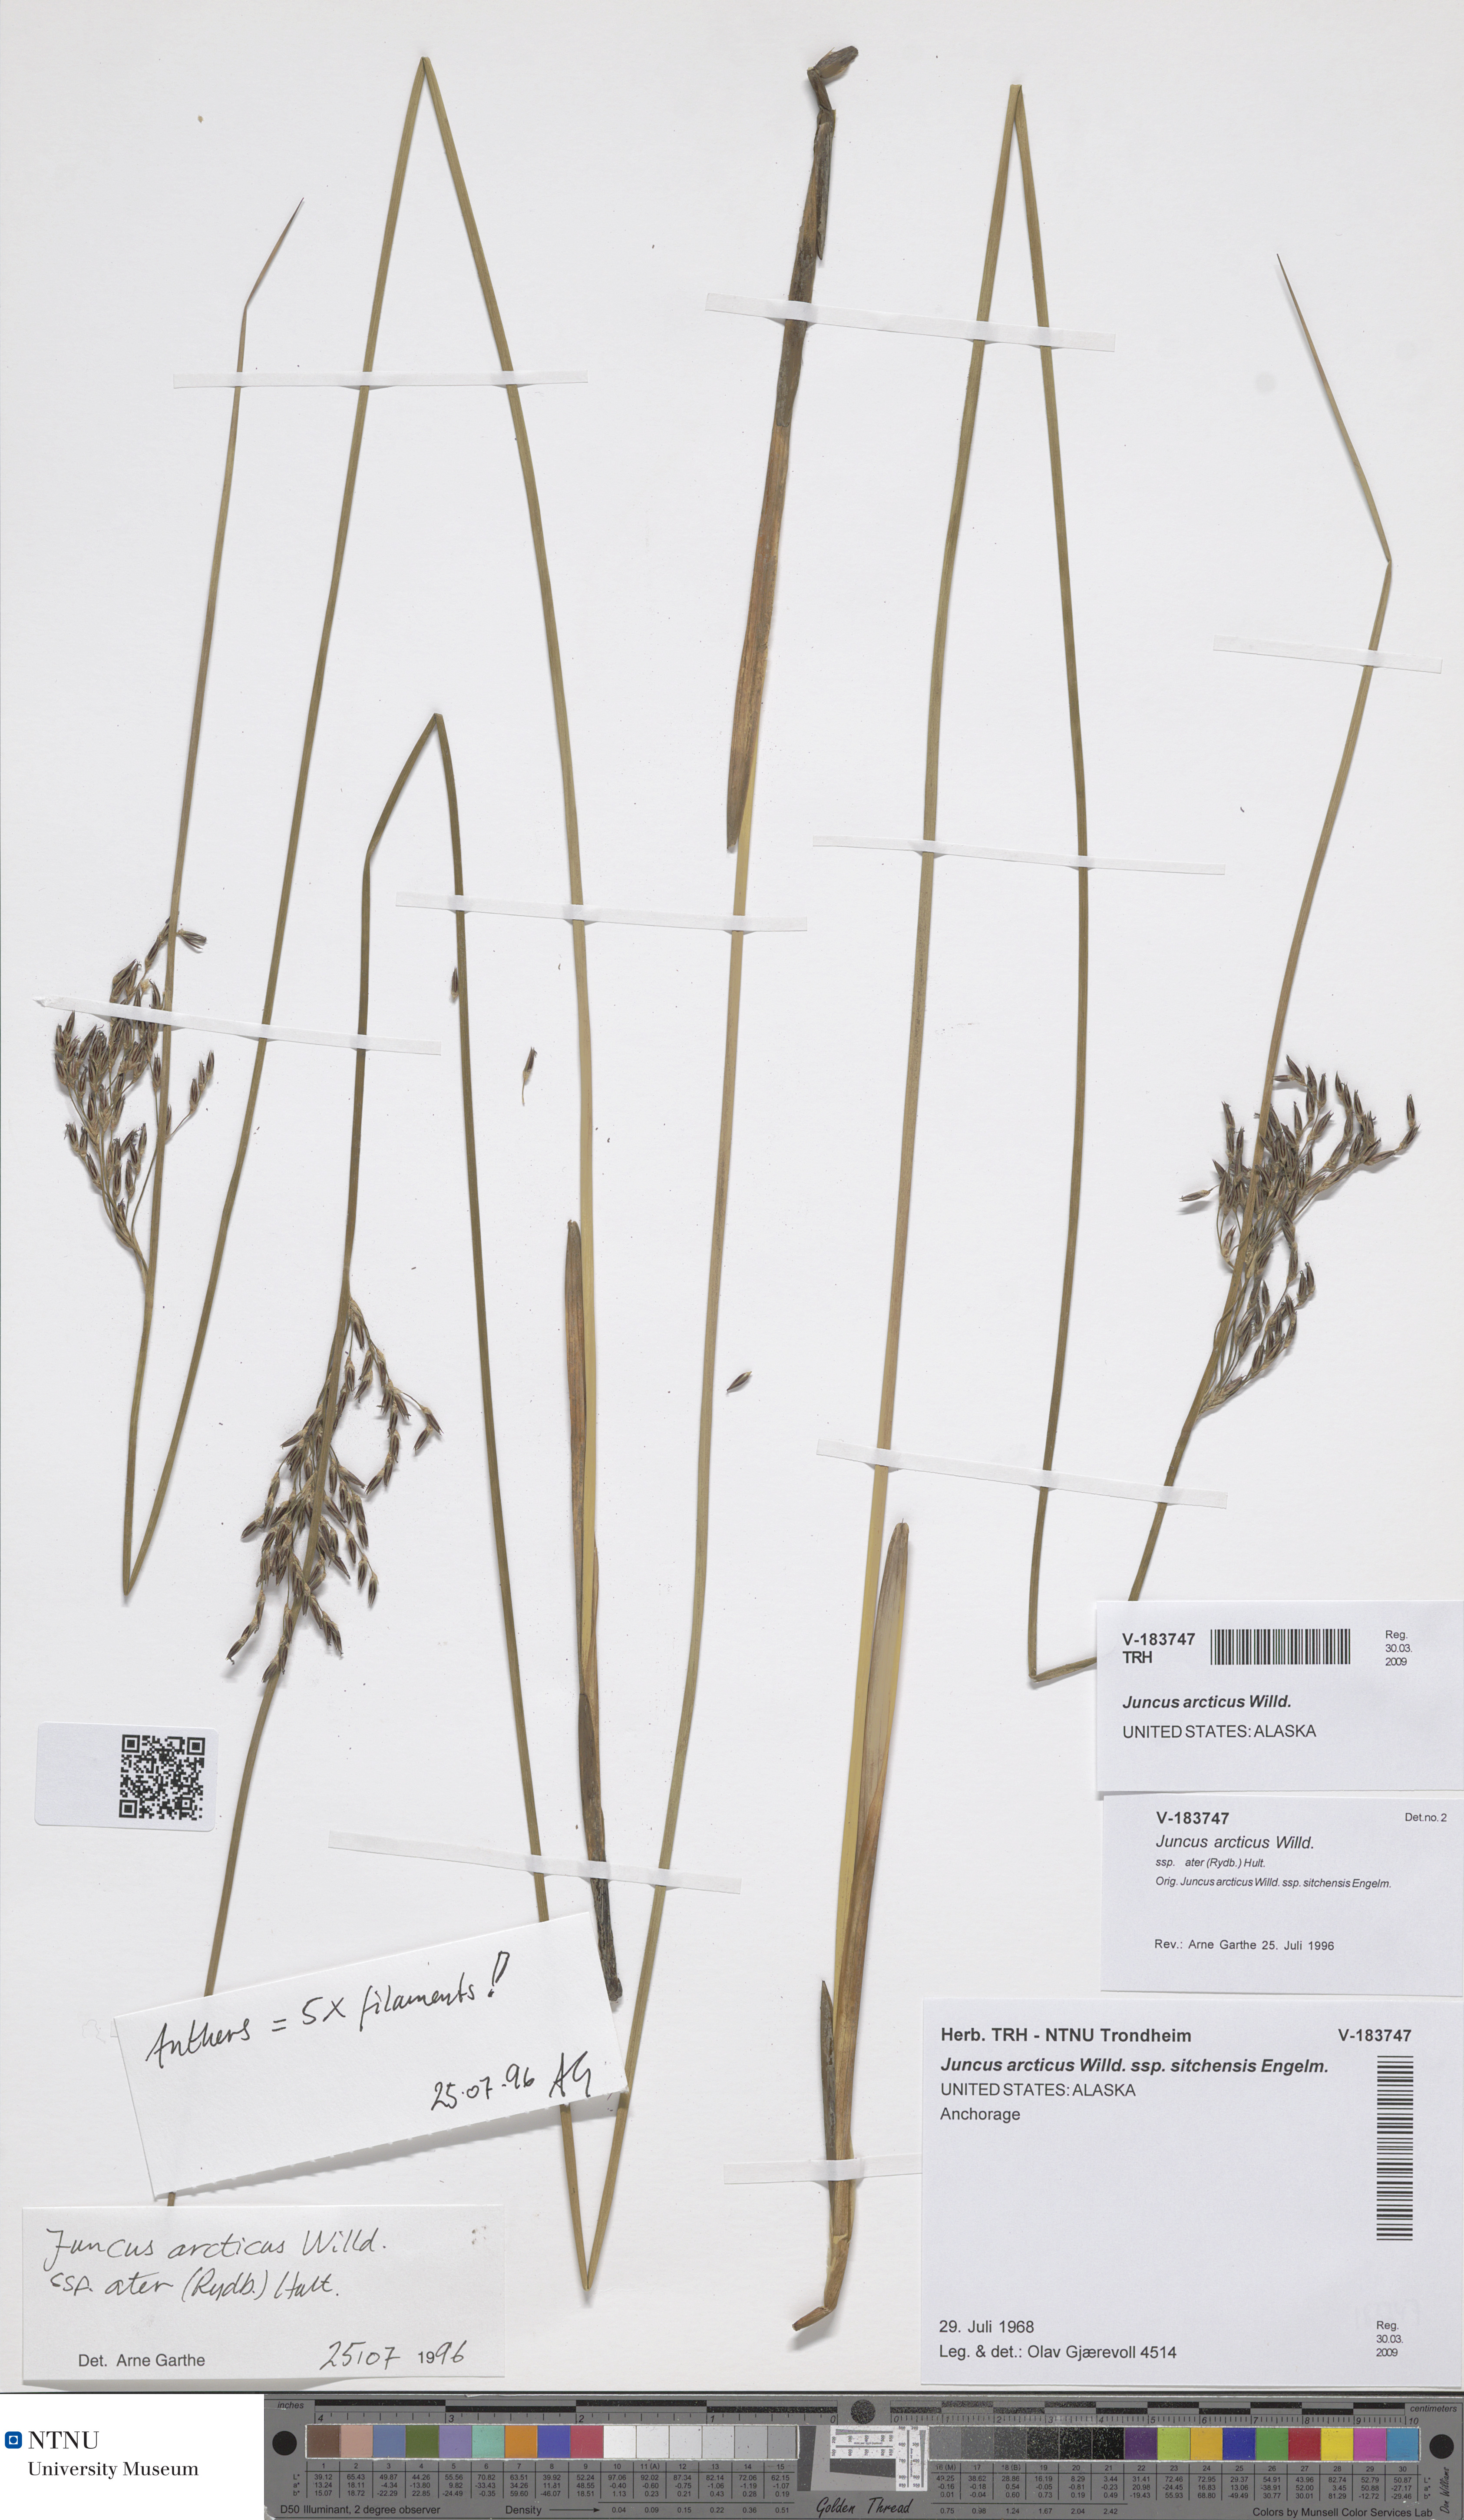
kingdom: Plantae
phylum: Tracheophyta
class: Liliopsida
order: Poales
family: Juncaceae
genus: Juncus
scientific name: Juncus arcticus
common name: Arctic rush
